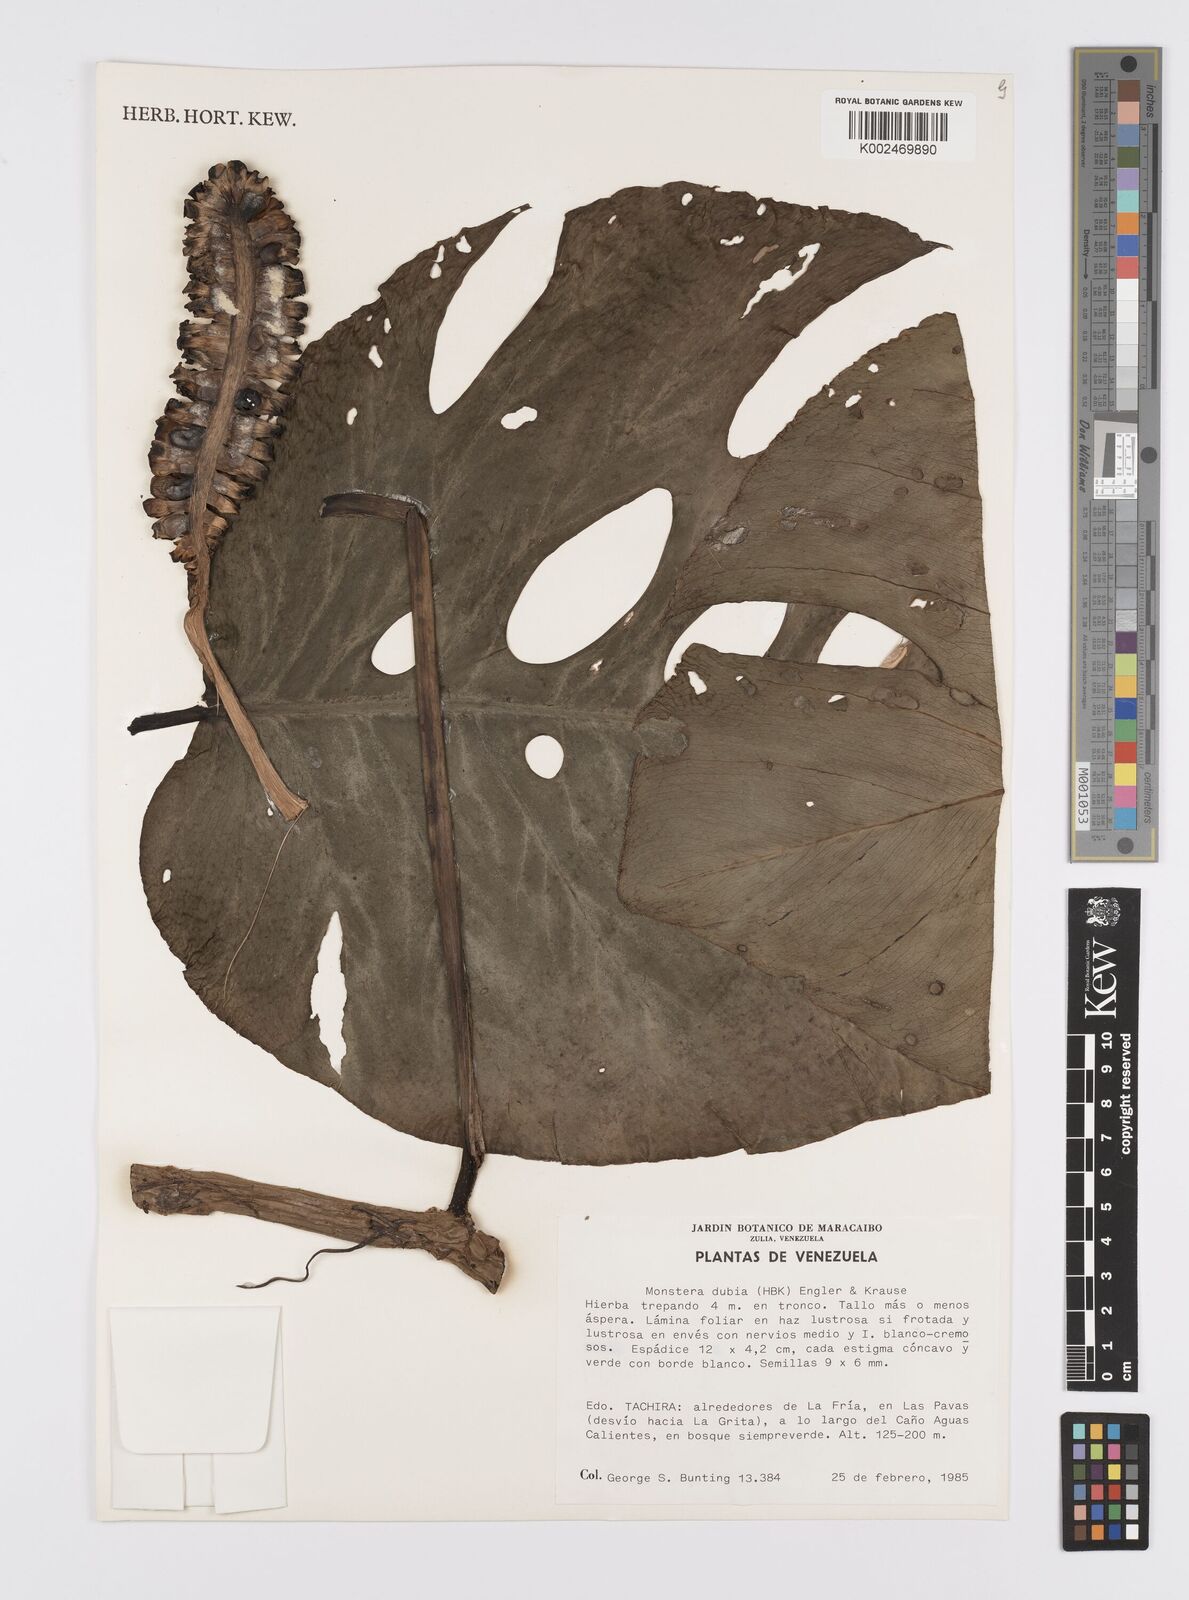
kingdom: Plantae
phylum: Tracheophyta
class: Liliopsida
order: Alismatales
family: Araceae
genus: Monstera
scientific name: Monstera dubia
